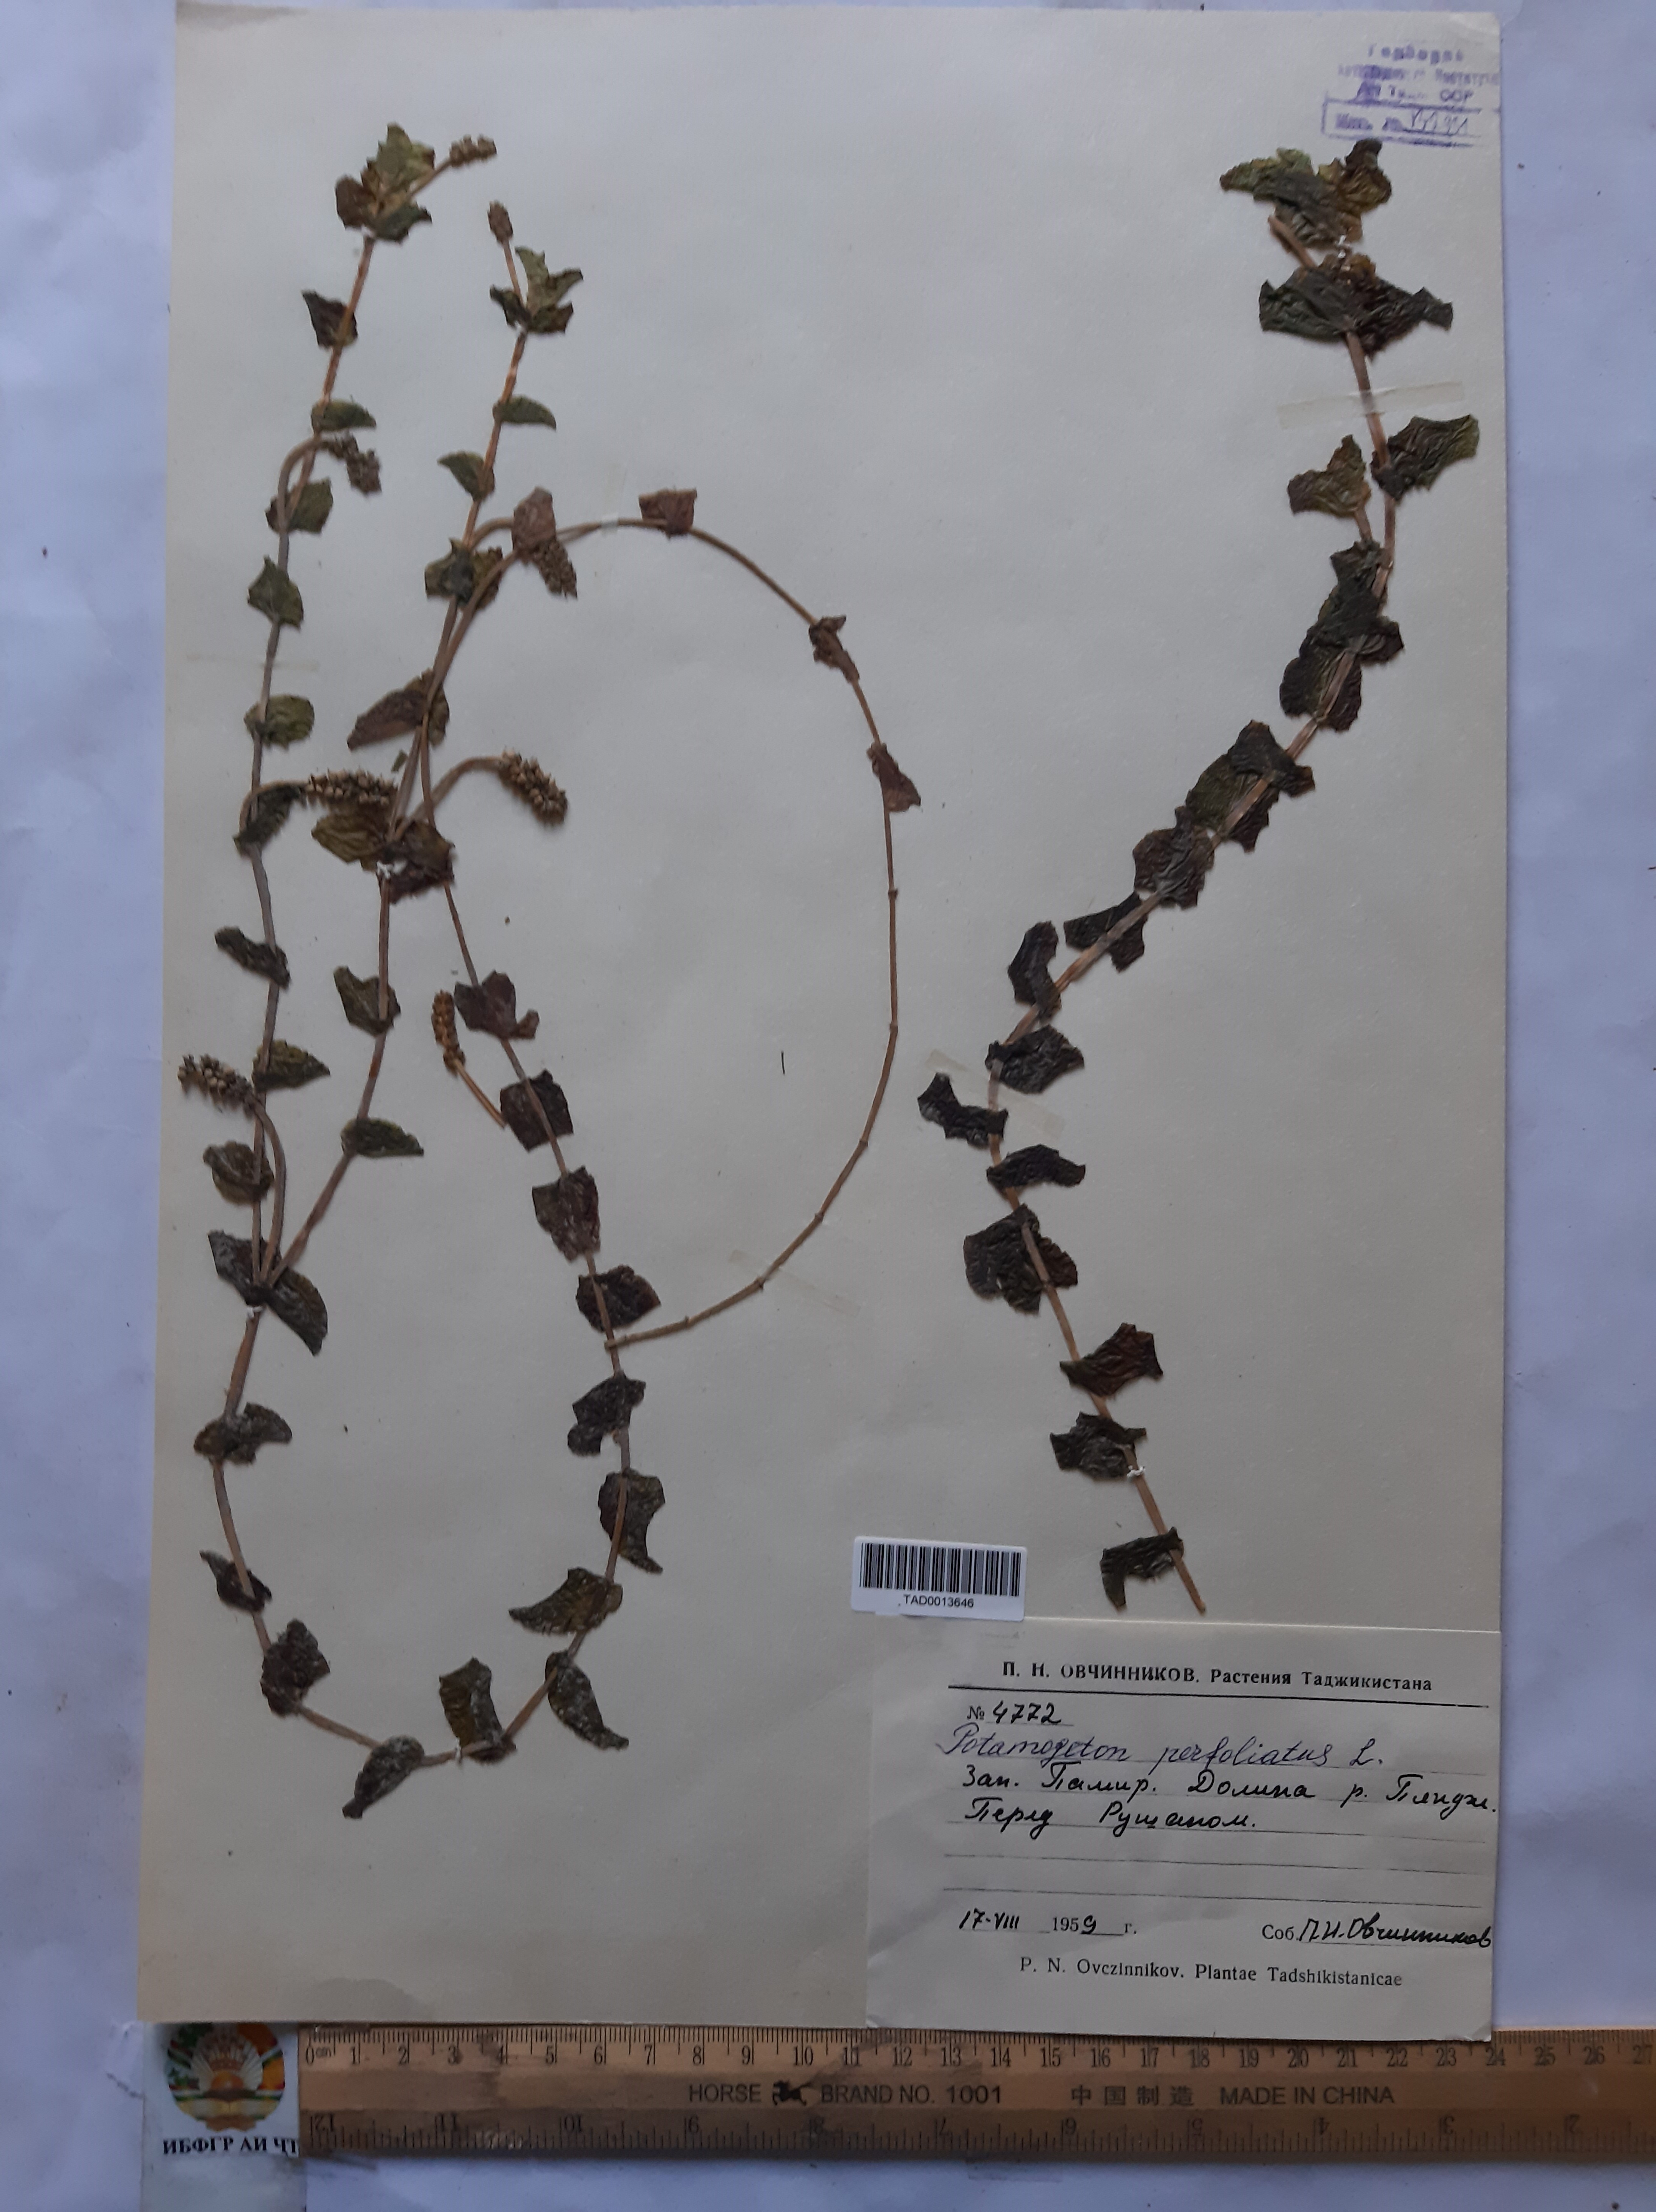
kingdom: Plantae
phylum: Tracheophyta
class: Liliopsida
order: Alismatales
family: Potamogetonaceae
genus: Potamogeton
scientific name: Potamogeton perfoliatus
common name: Perfoliate pondweed
